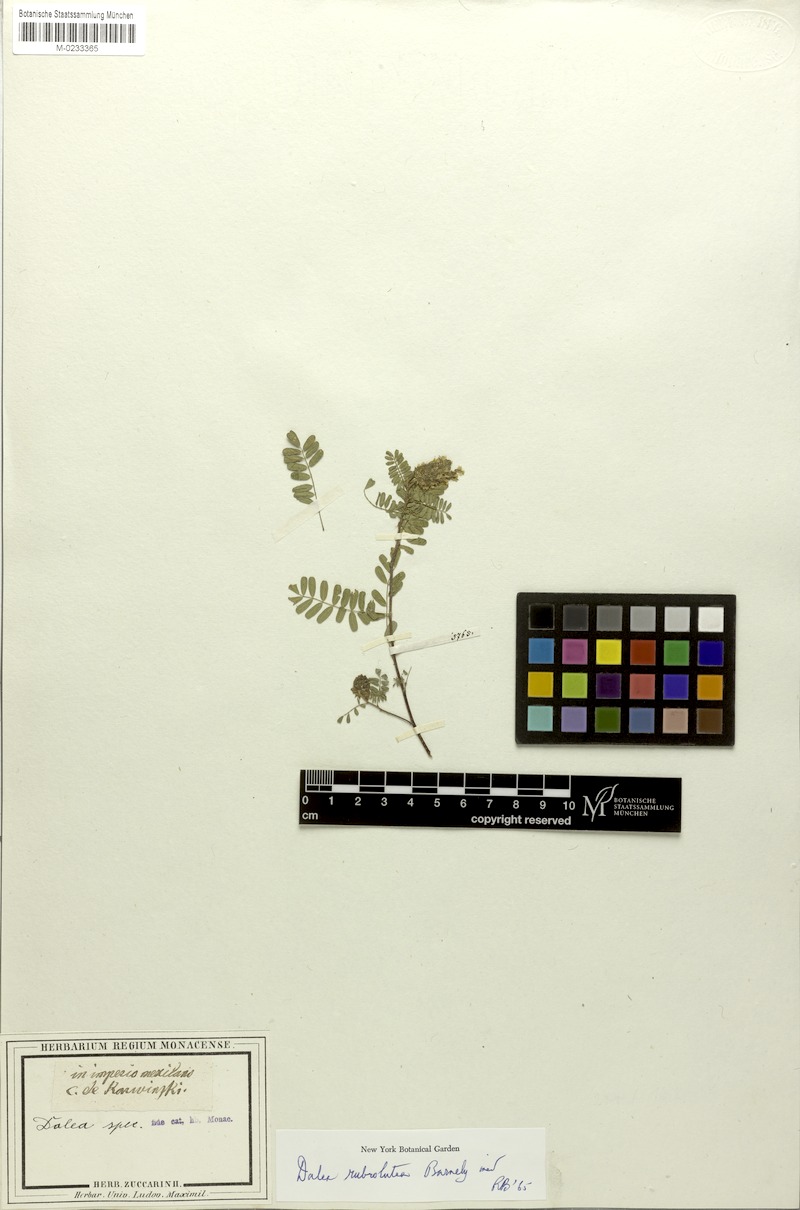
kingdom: Plantae
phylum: Tracheophyta
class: Magnoliopsida
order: Fabales
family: Fabaceae
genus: Dalea
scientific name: Dalea rubrolutea
